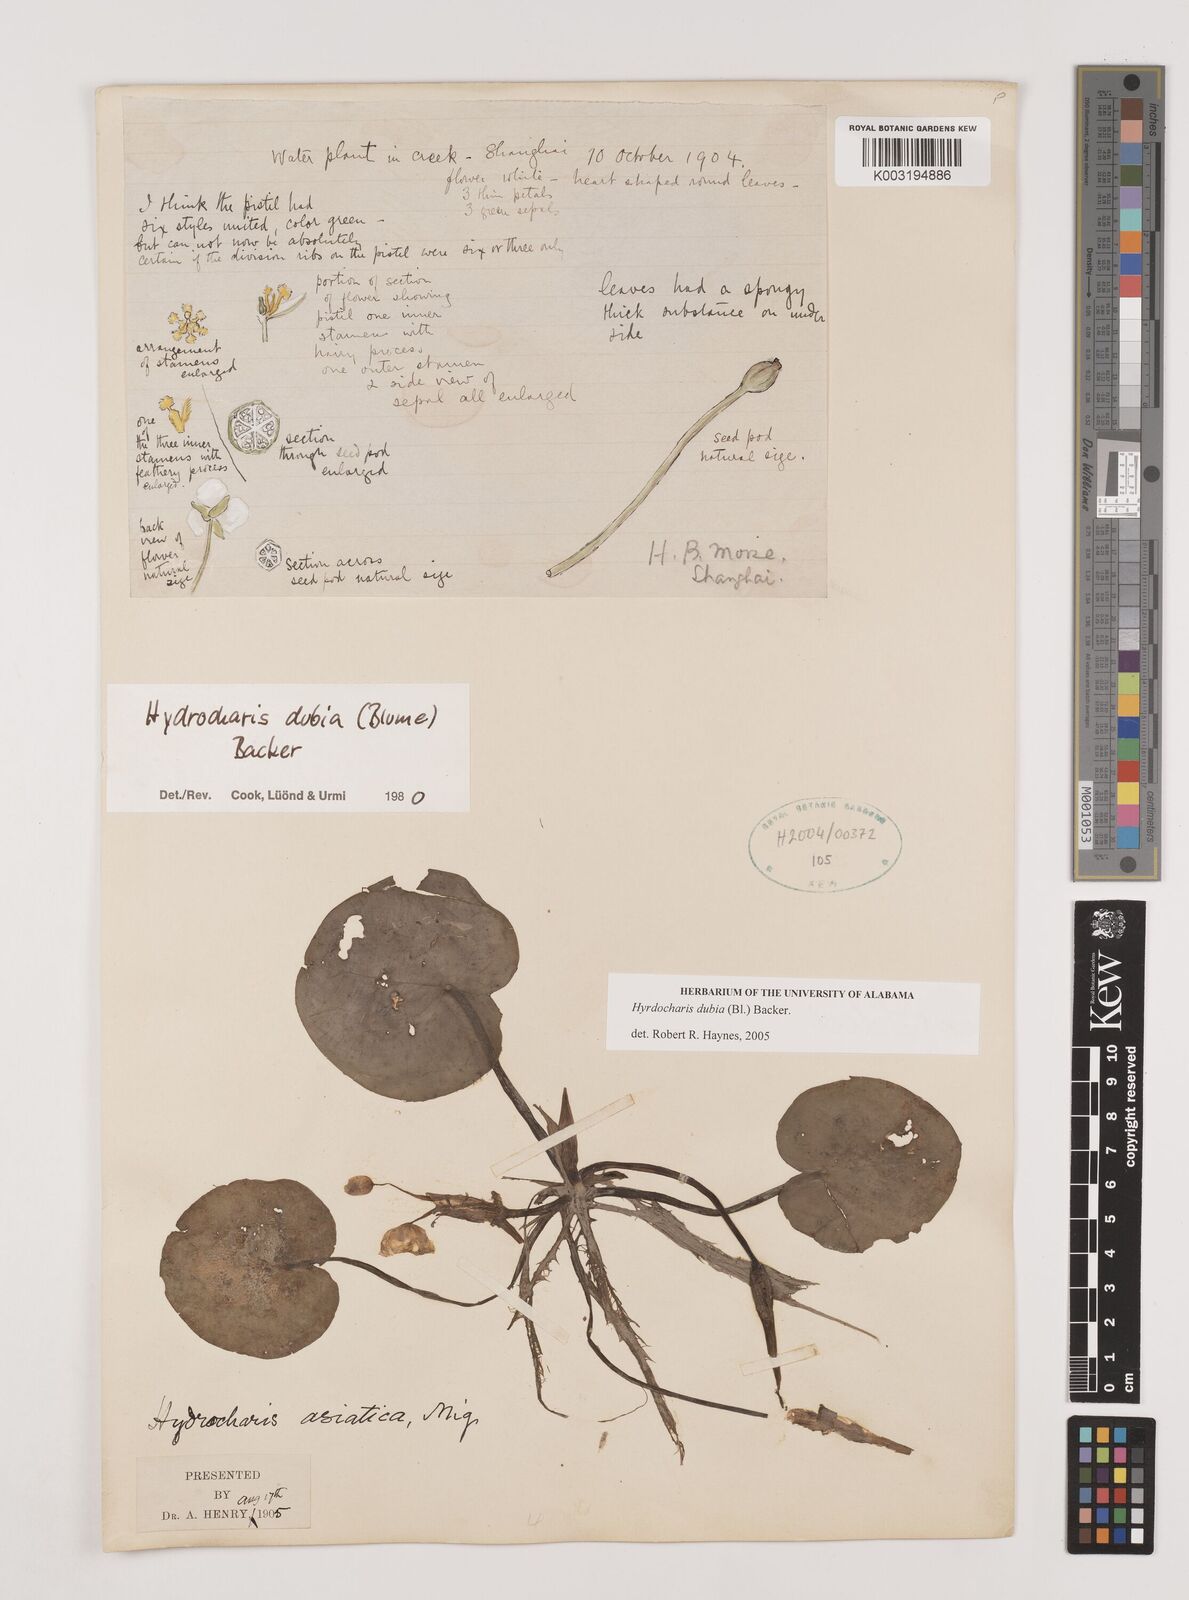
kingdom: Plantae
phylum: Tracheophyta
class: Liliopsida
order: Alismatales
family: Hydrocharitaceae
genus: Hydrocharis
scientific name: Hydrocharis dubia
